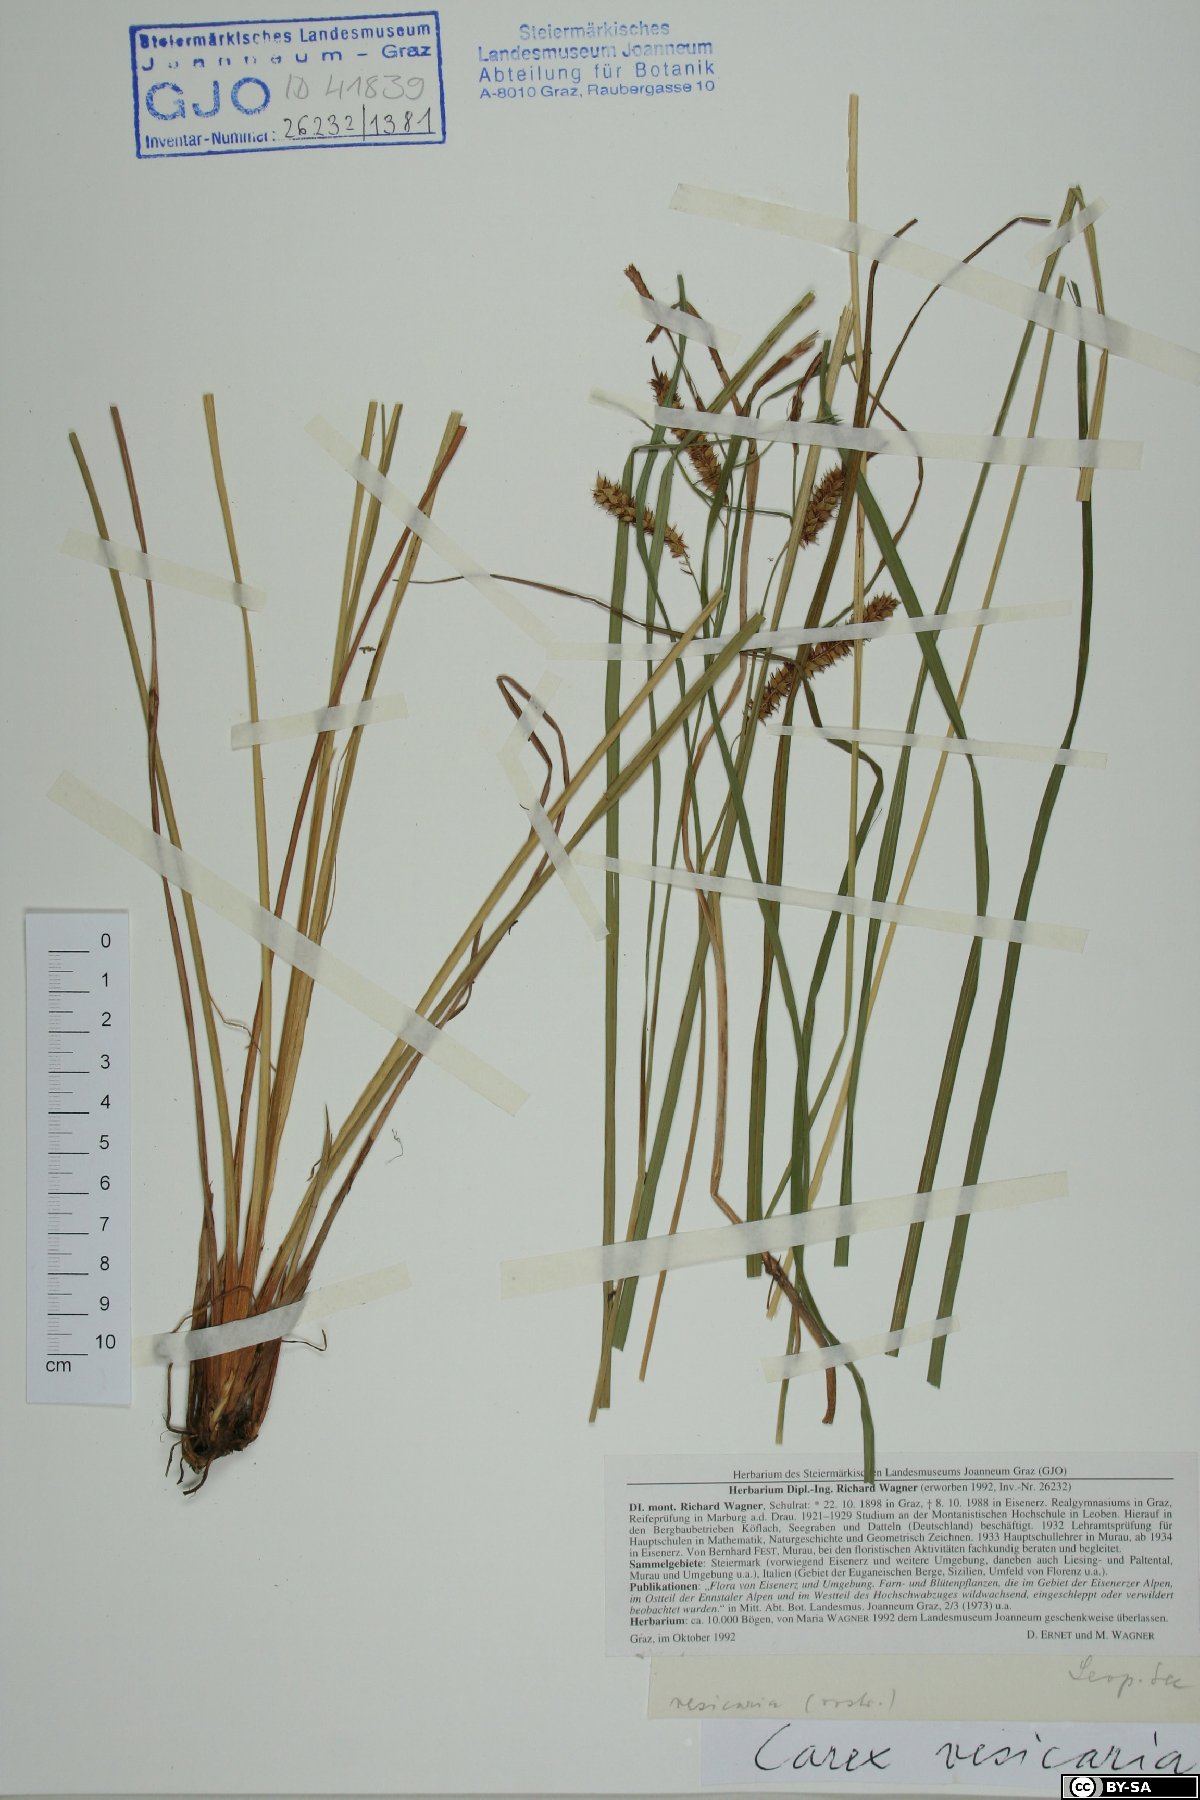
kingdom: Plantae
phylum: Tracheophyta
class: Liliopsida
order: Poales
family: Cyperaceae
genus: Carex
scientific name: Carex vesicaria
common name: Bladder-sedge
